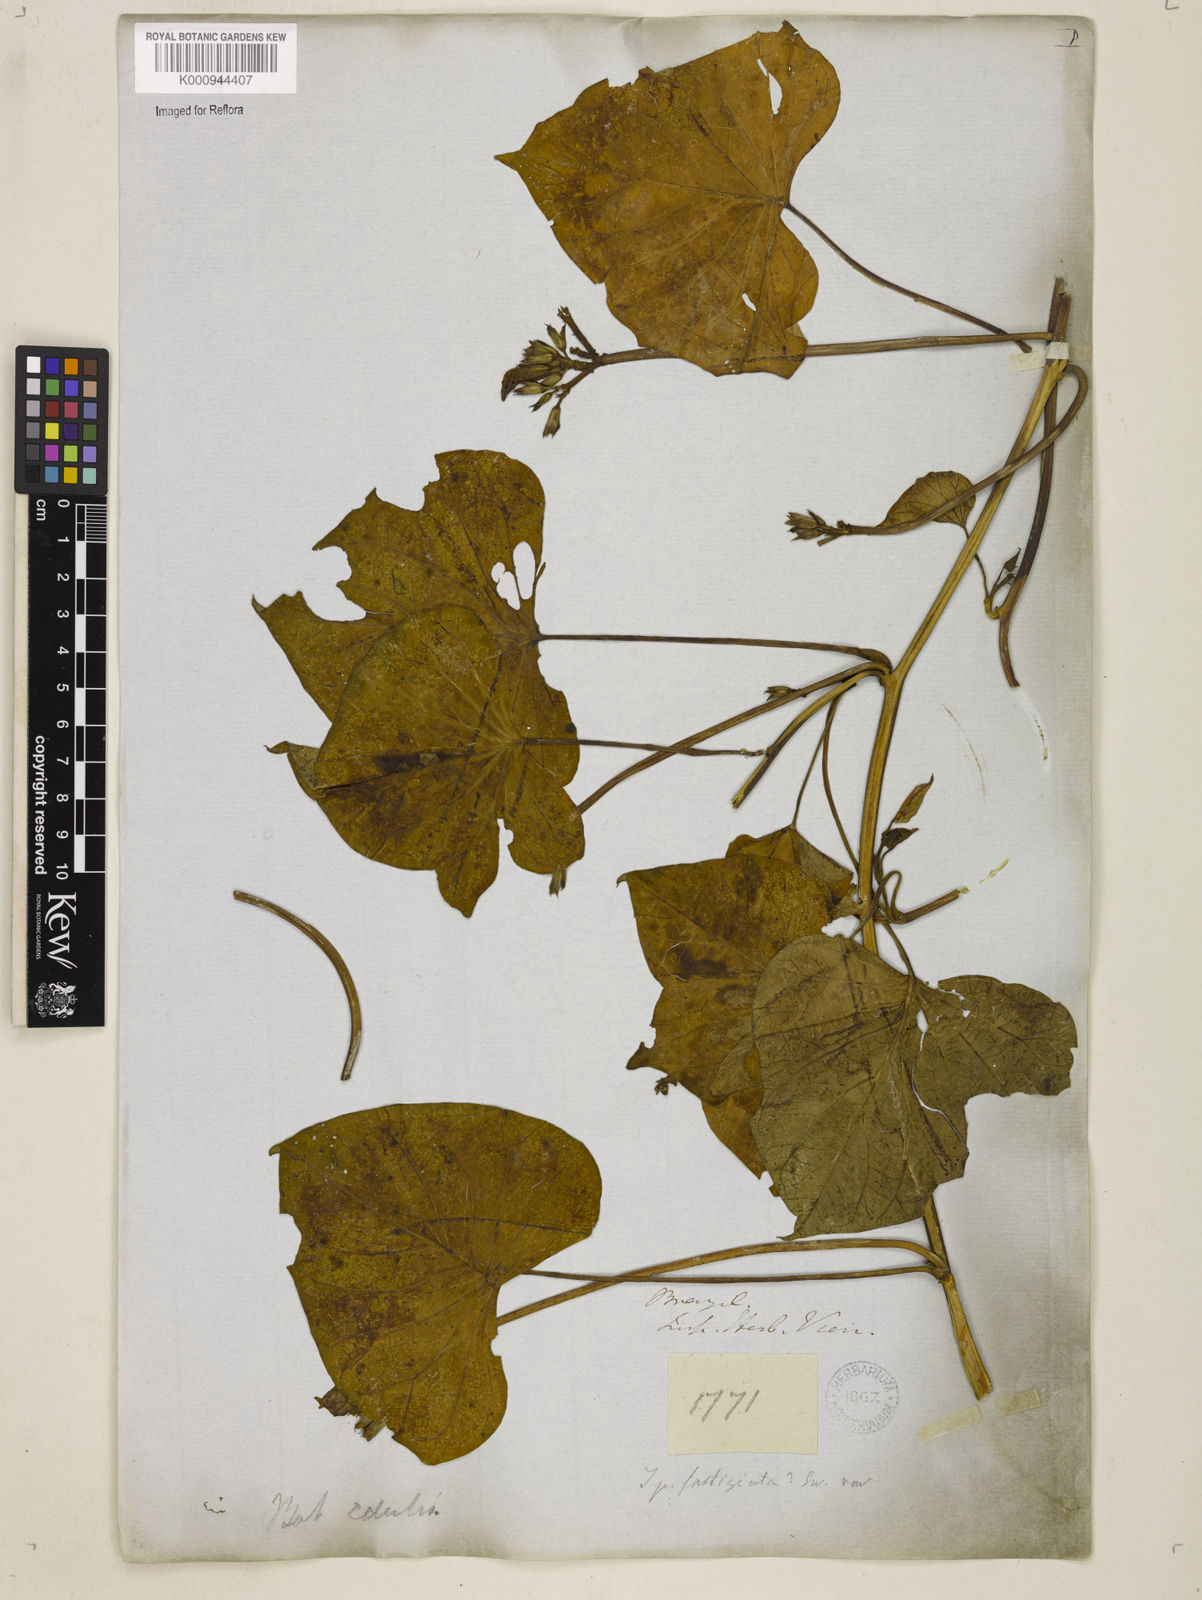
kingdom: Plantae
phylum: Tracheophyta
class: Magnoliopsida
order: Solanales
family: Convolvulaceae
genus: Ipomoea
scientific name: Ipomoea batatas
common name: Sweet-potato
